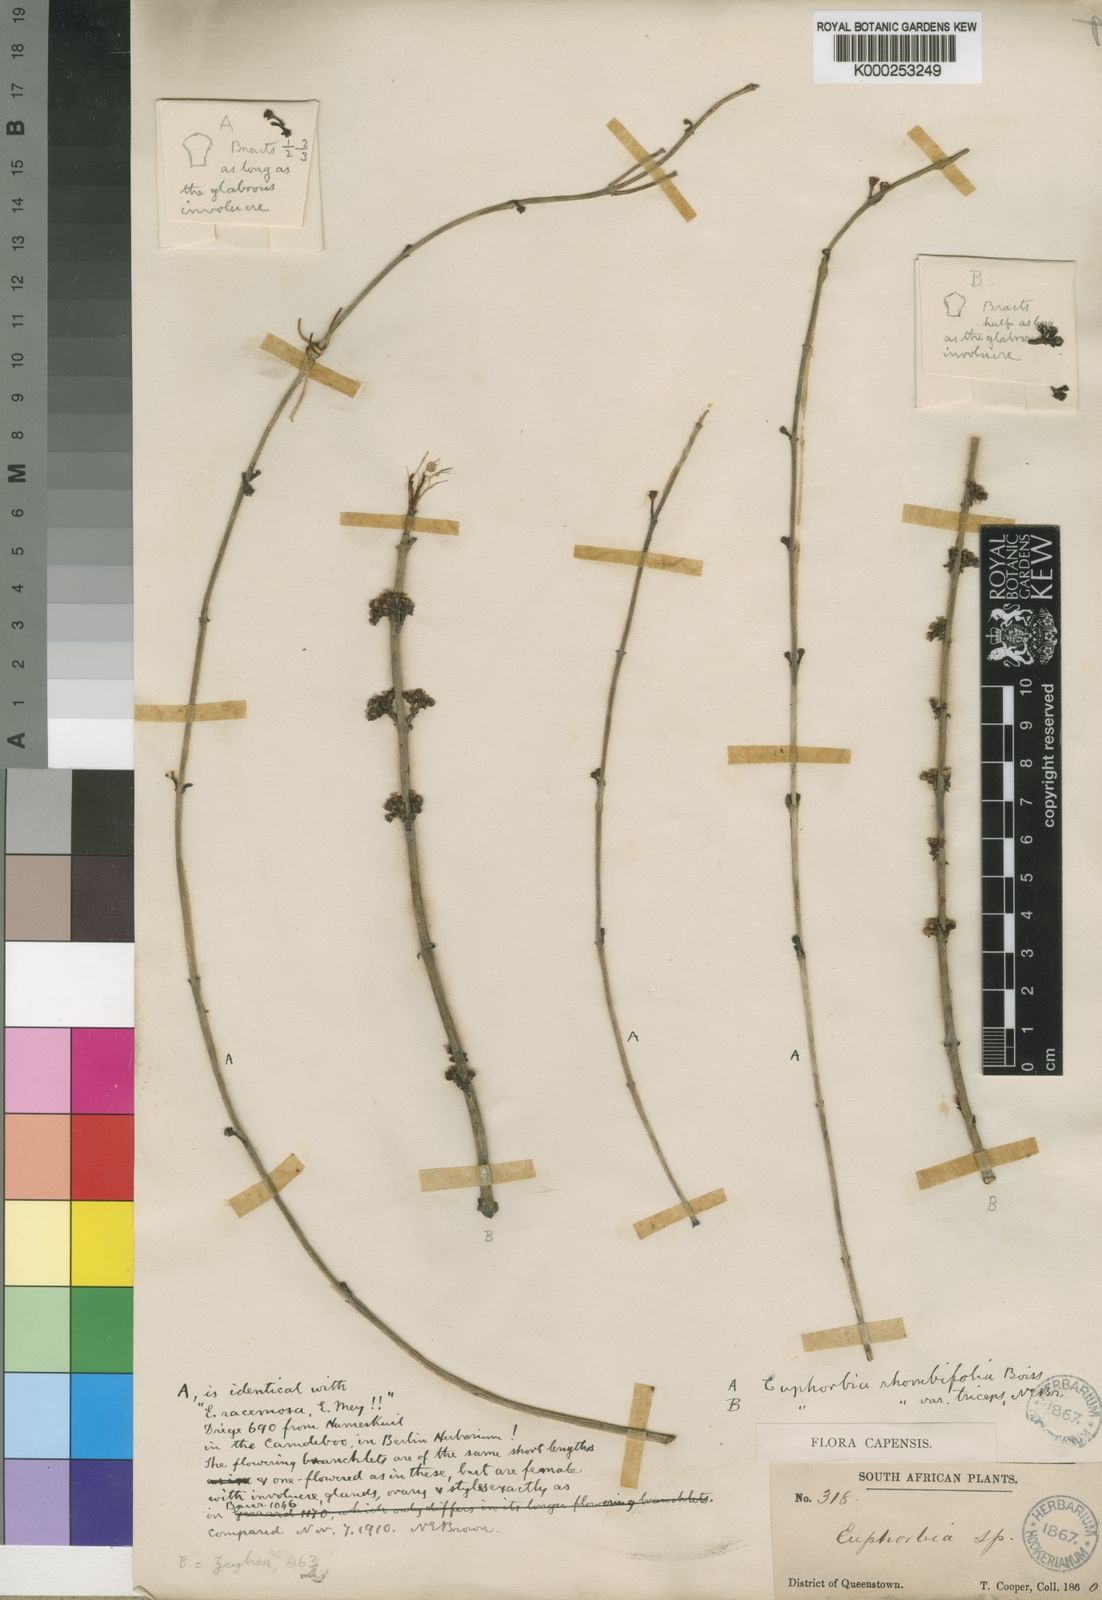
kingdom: Plantae
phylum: Tracheophyta
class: Magnoliopsida
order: Malpighiales
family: Euphorbiaceae
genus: Euphorbia
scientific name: Euphorbia spartaria
